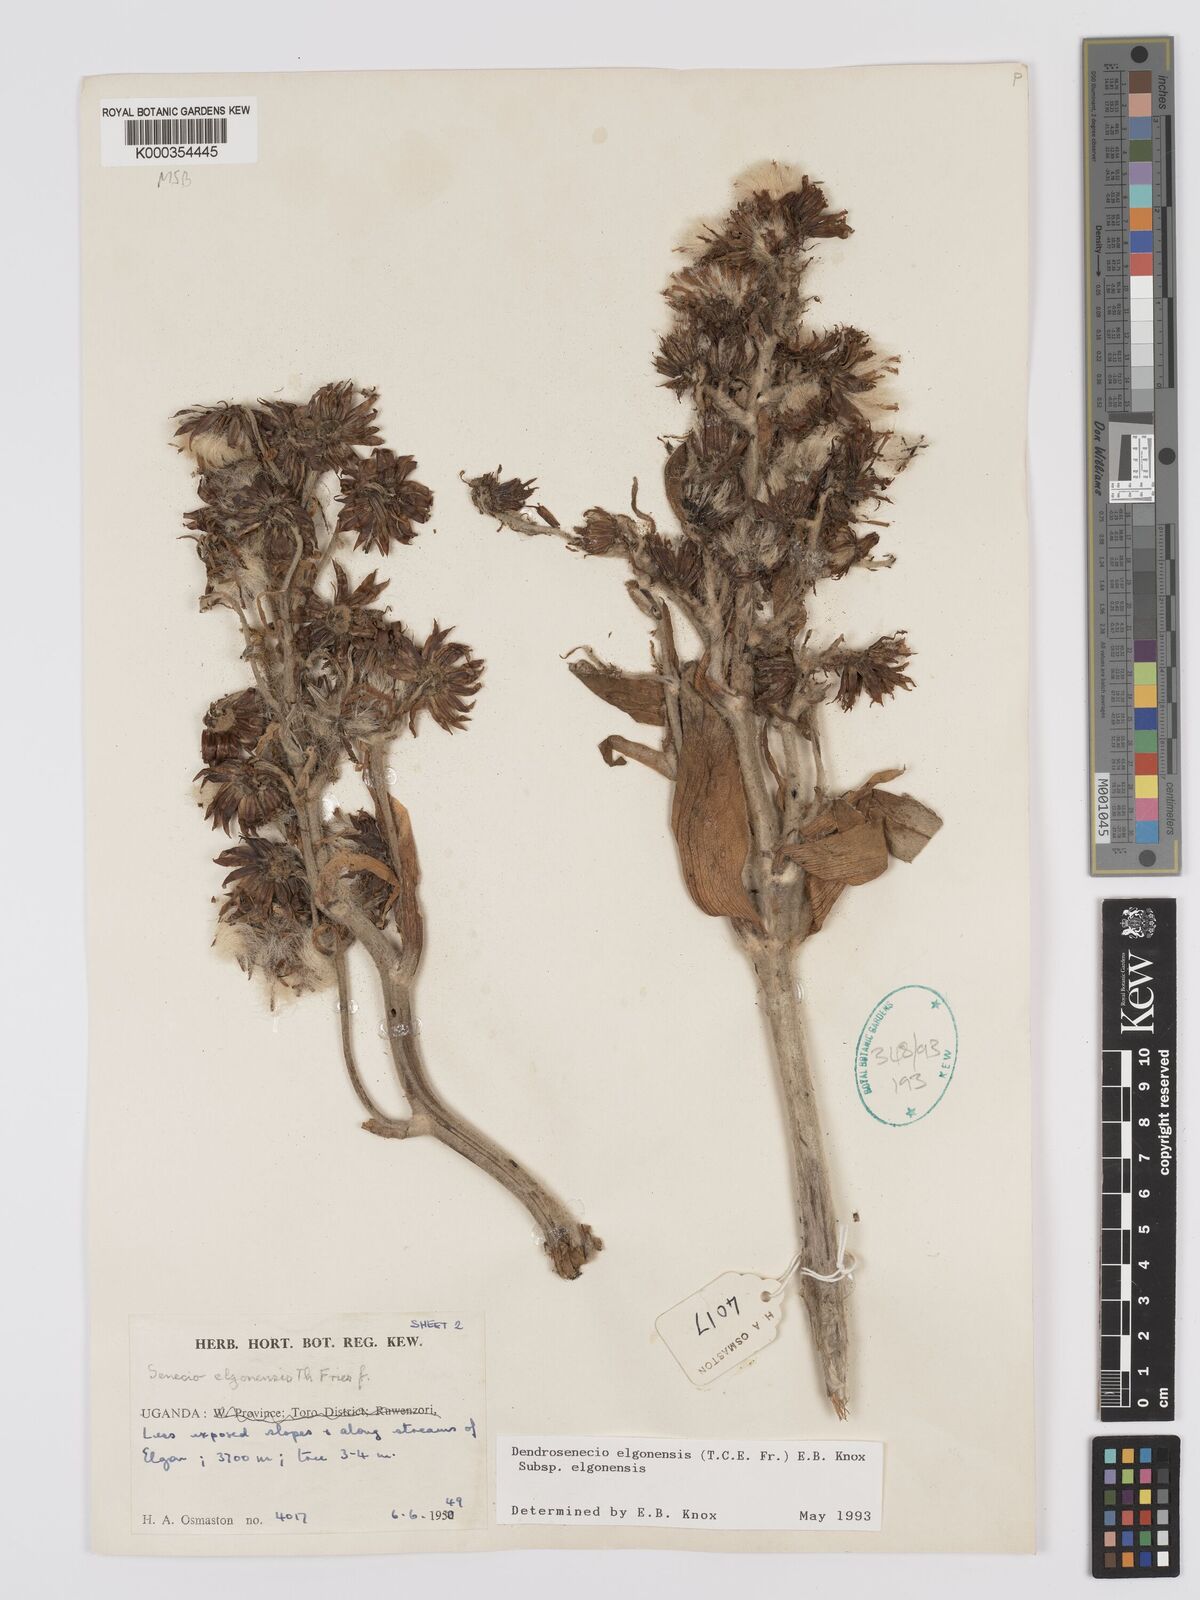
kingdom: Plantae
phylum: Tracheophyta
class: Magnoliopsida
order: Asterales
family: Asteraceae
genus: Dendrosenecio
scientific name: Dendrosenecio elgonensis
